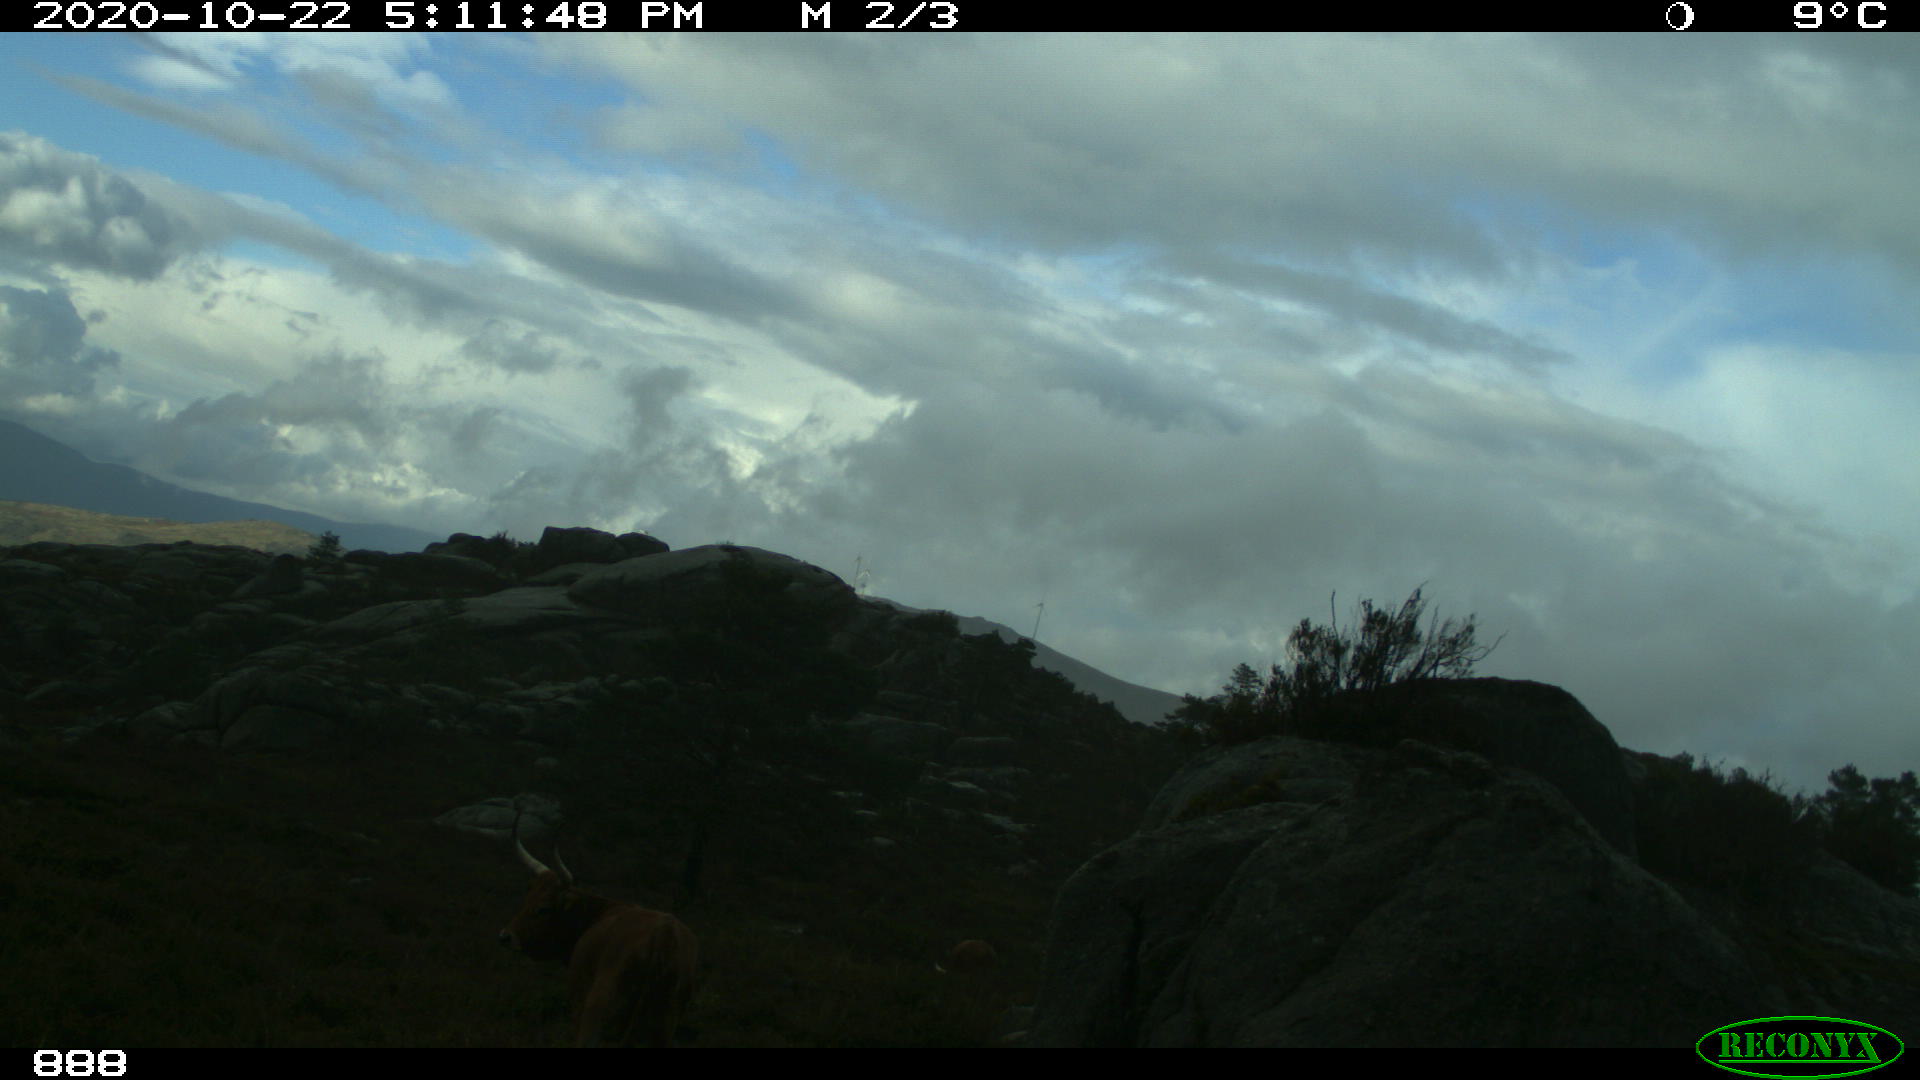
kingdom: Animalia
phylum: Chordata
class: Mammalia
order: Artiodactyla
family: Bovidae
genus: Bos
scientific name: Bos taurus
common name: Domesticated cattle
